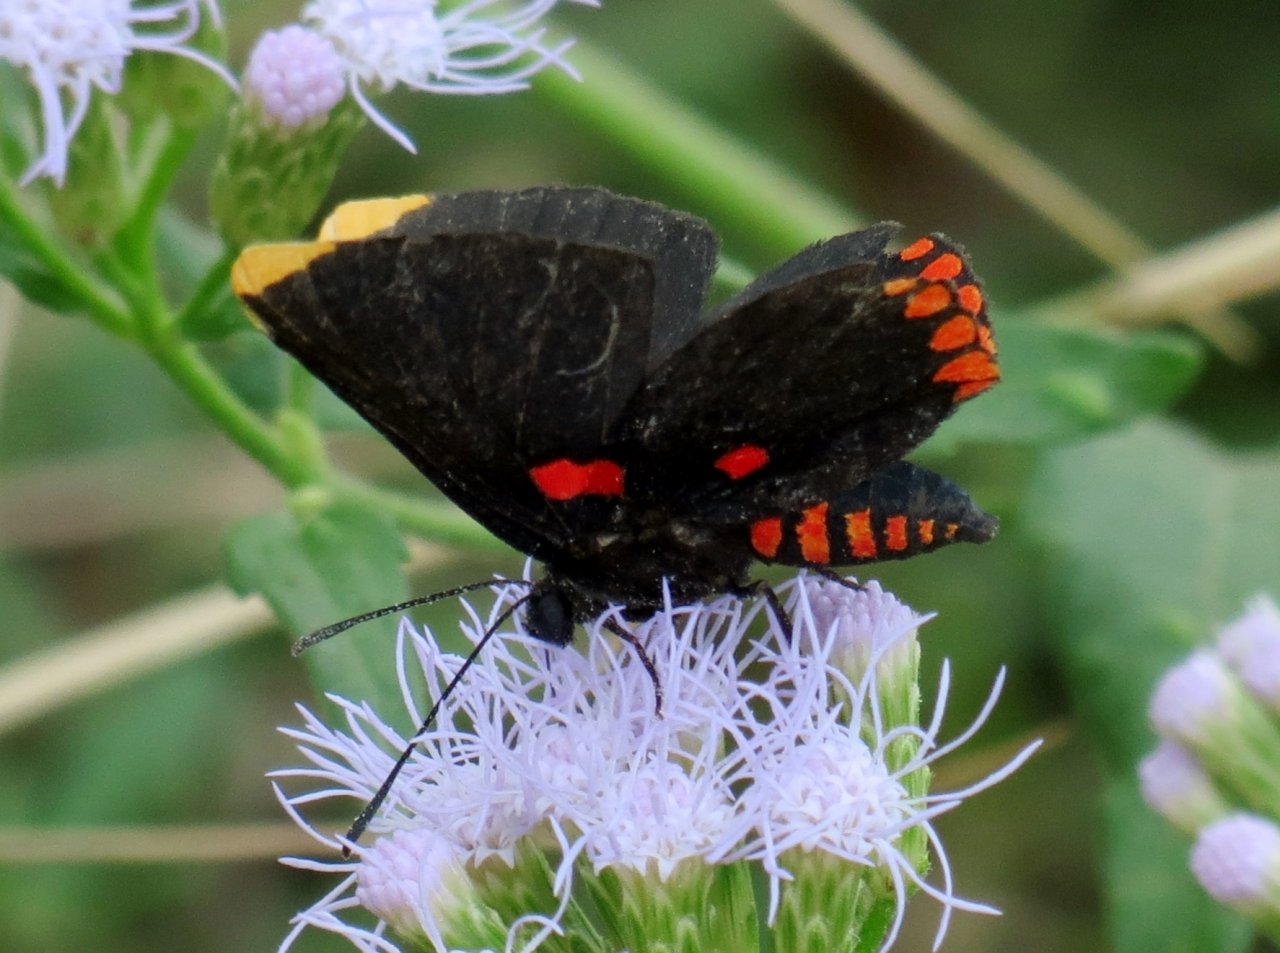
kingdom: Animalia
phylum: Arthropoda
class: Insecta
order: Lepidoptera
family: Lycaenidae
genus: Melanis
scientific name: Melanis pixe
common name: Red-bordered Pixie
